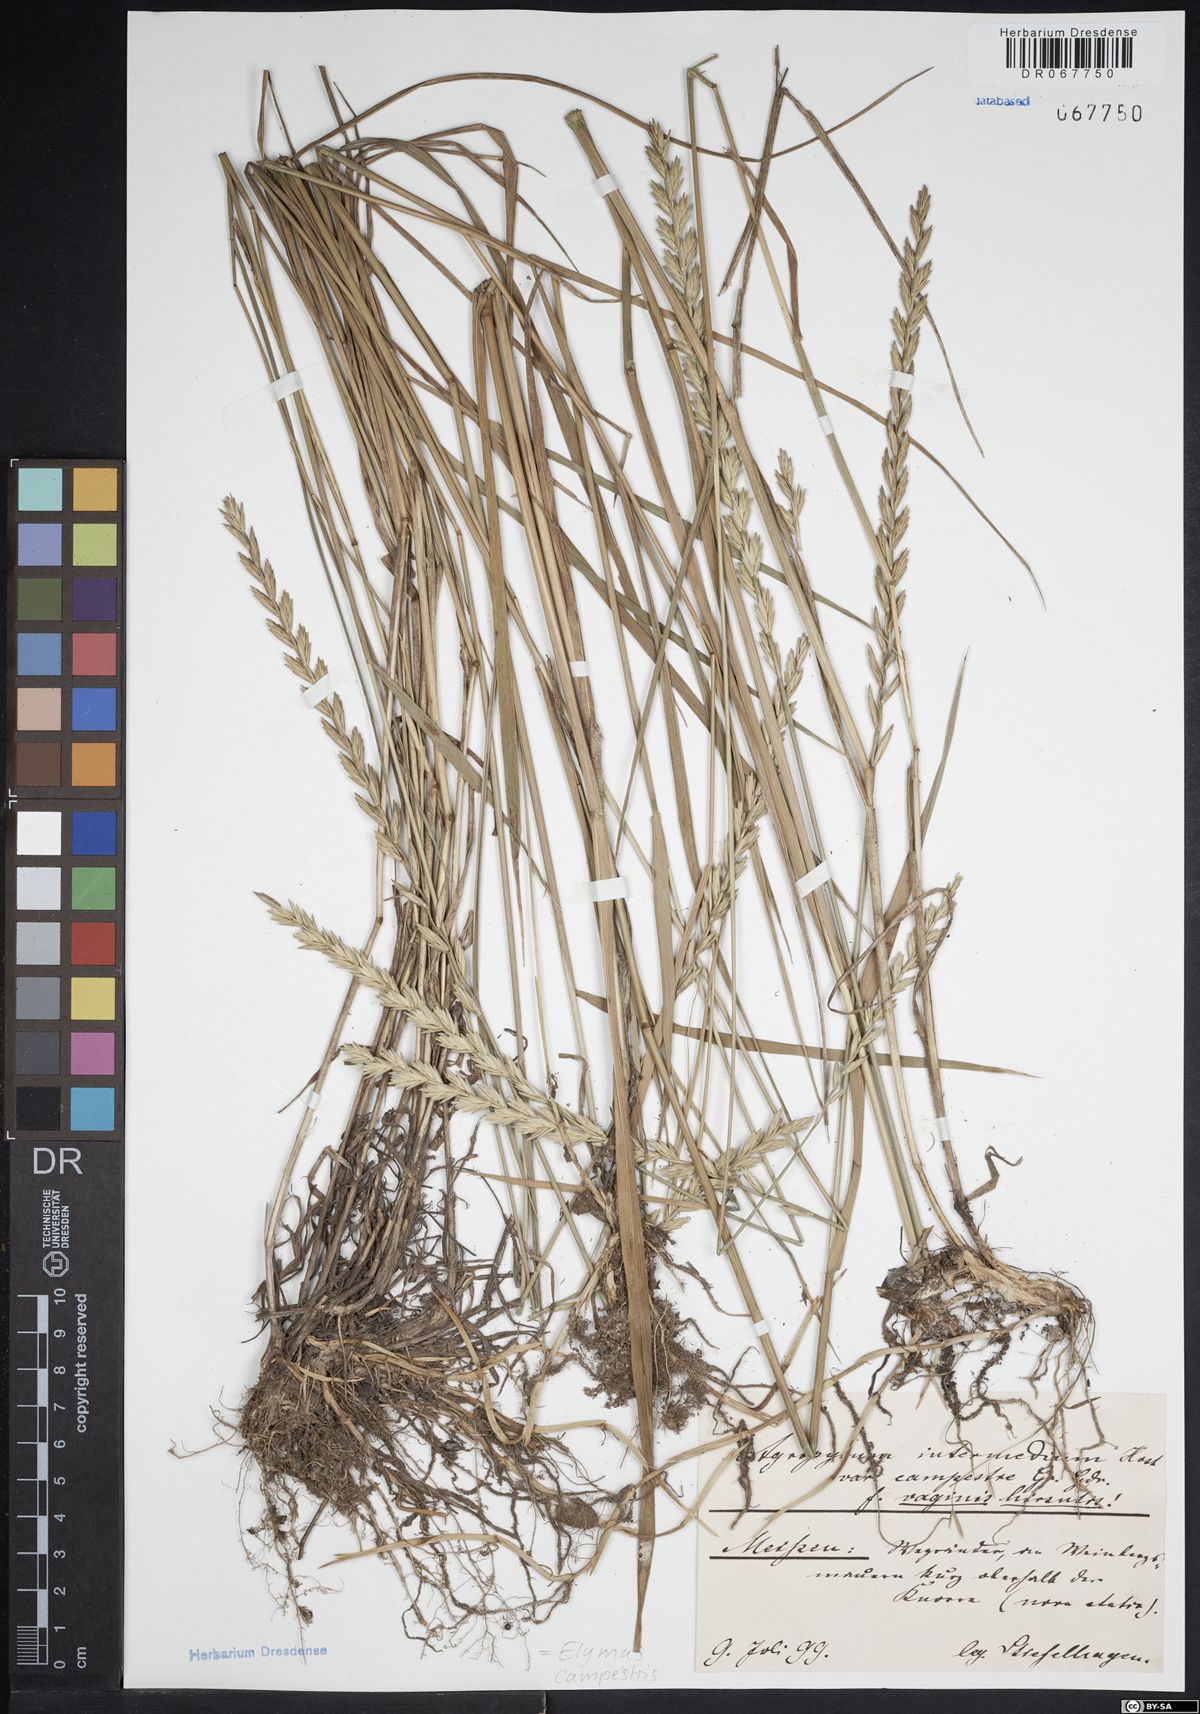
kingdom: Plantae
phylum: Tracheophyta
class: Liliopsida
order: Poales
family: Poaceae
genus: Elymus
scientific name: Elymus pungens
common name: Sea couch
